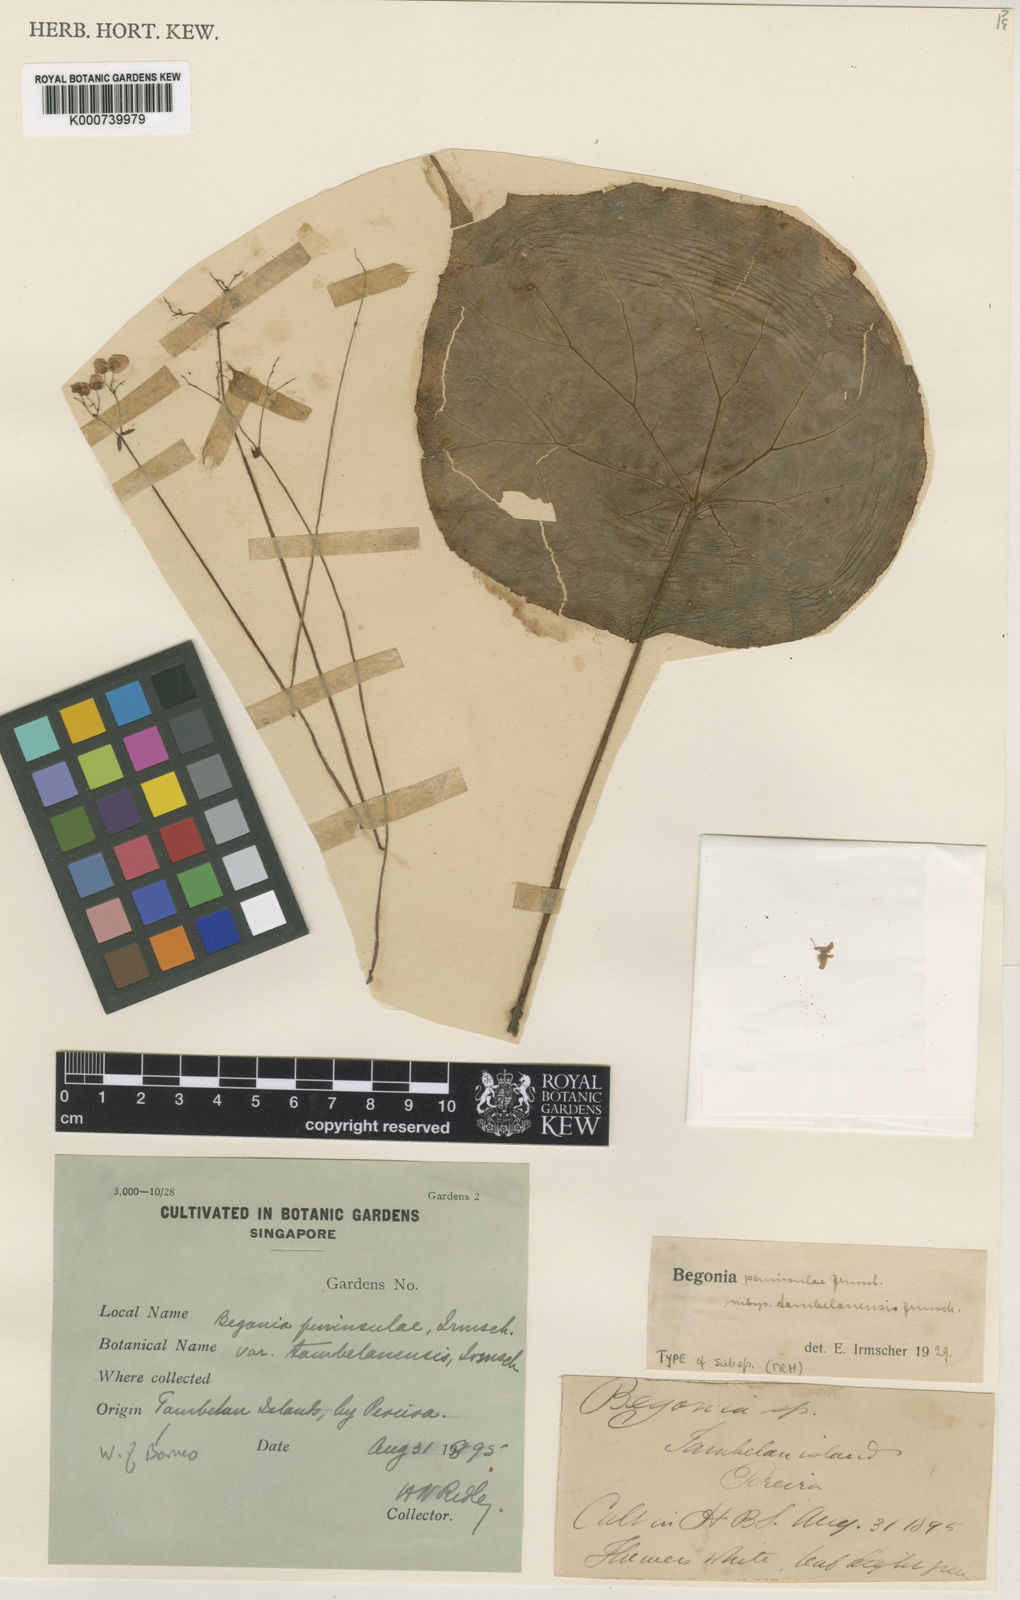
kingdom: Plantae
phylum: Tracheophyta
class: Magnoliopsida
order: Cucurbitales
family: Begoniaceae
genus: Begonia
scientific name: Begonia tambelanensis
